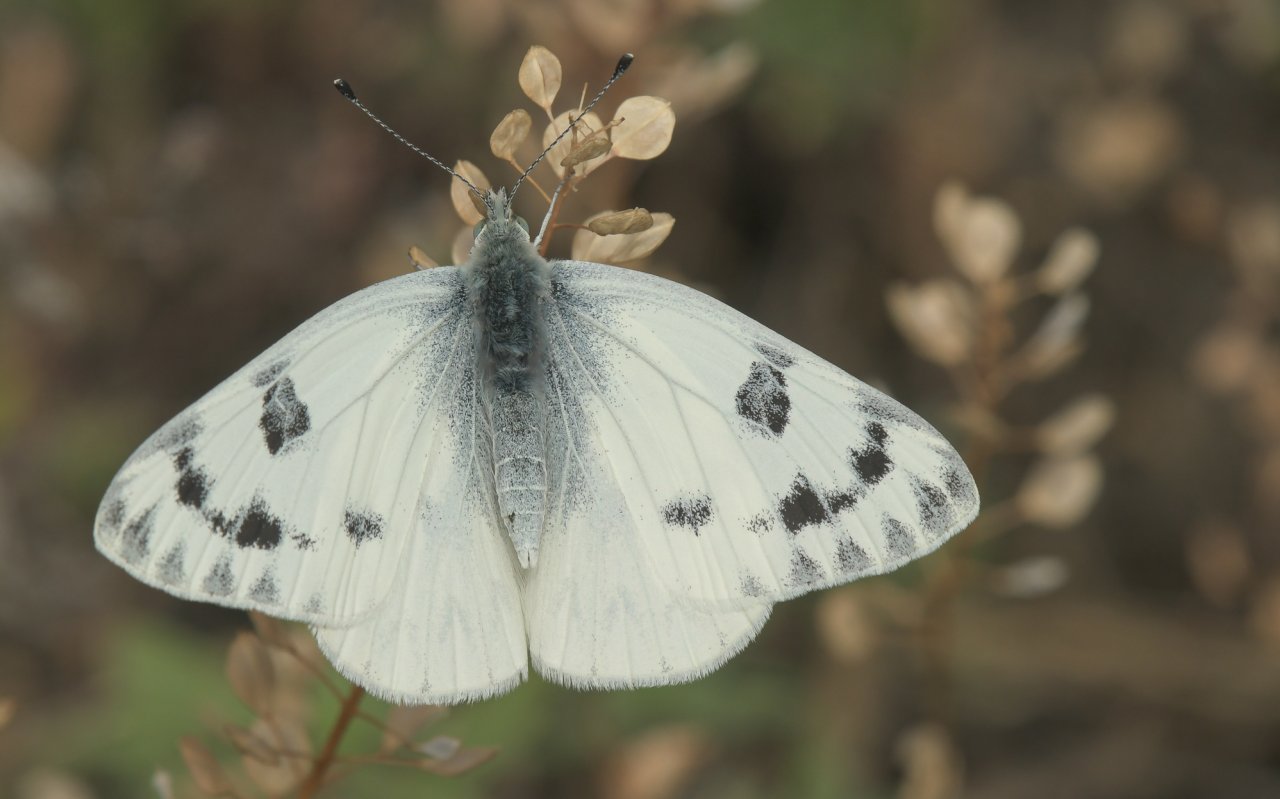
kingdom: Animalia
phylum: Arthropoda
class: Insecta
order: Lepidoptera
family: Pieridae
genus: Pontia
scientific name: Pontia occidentalis
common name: Western White
